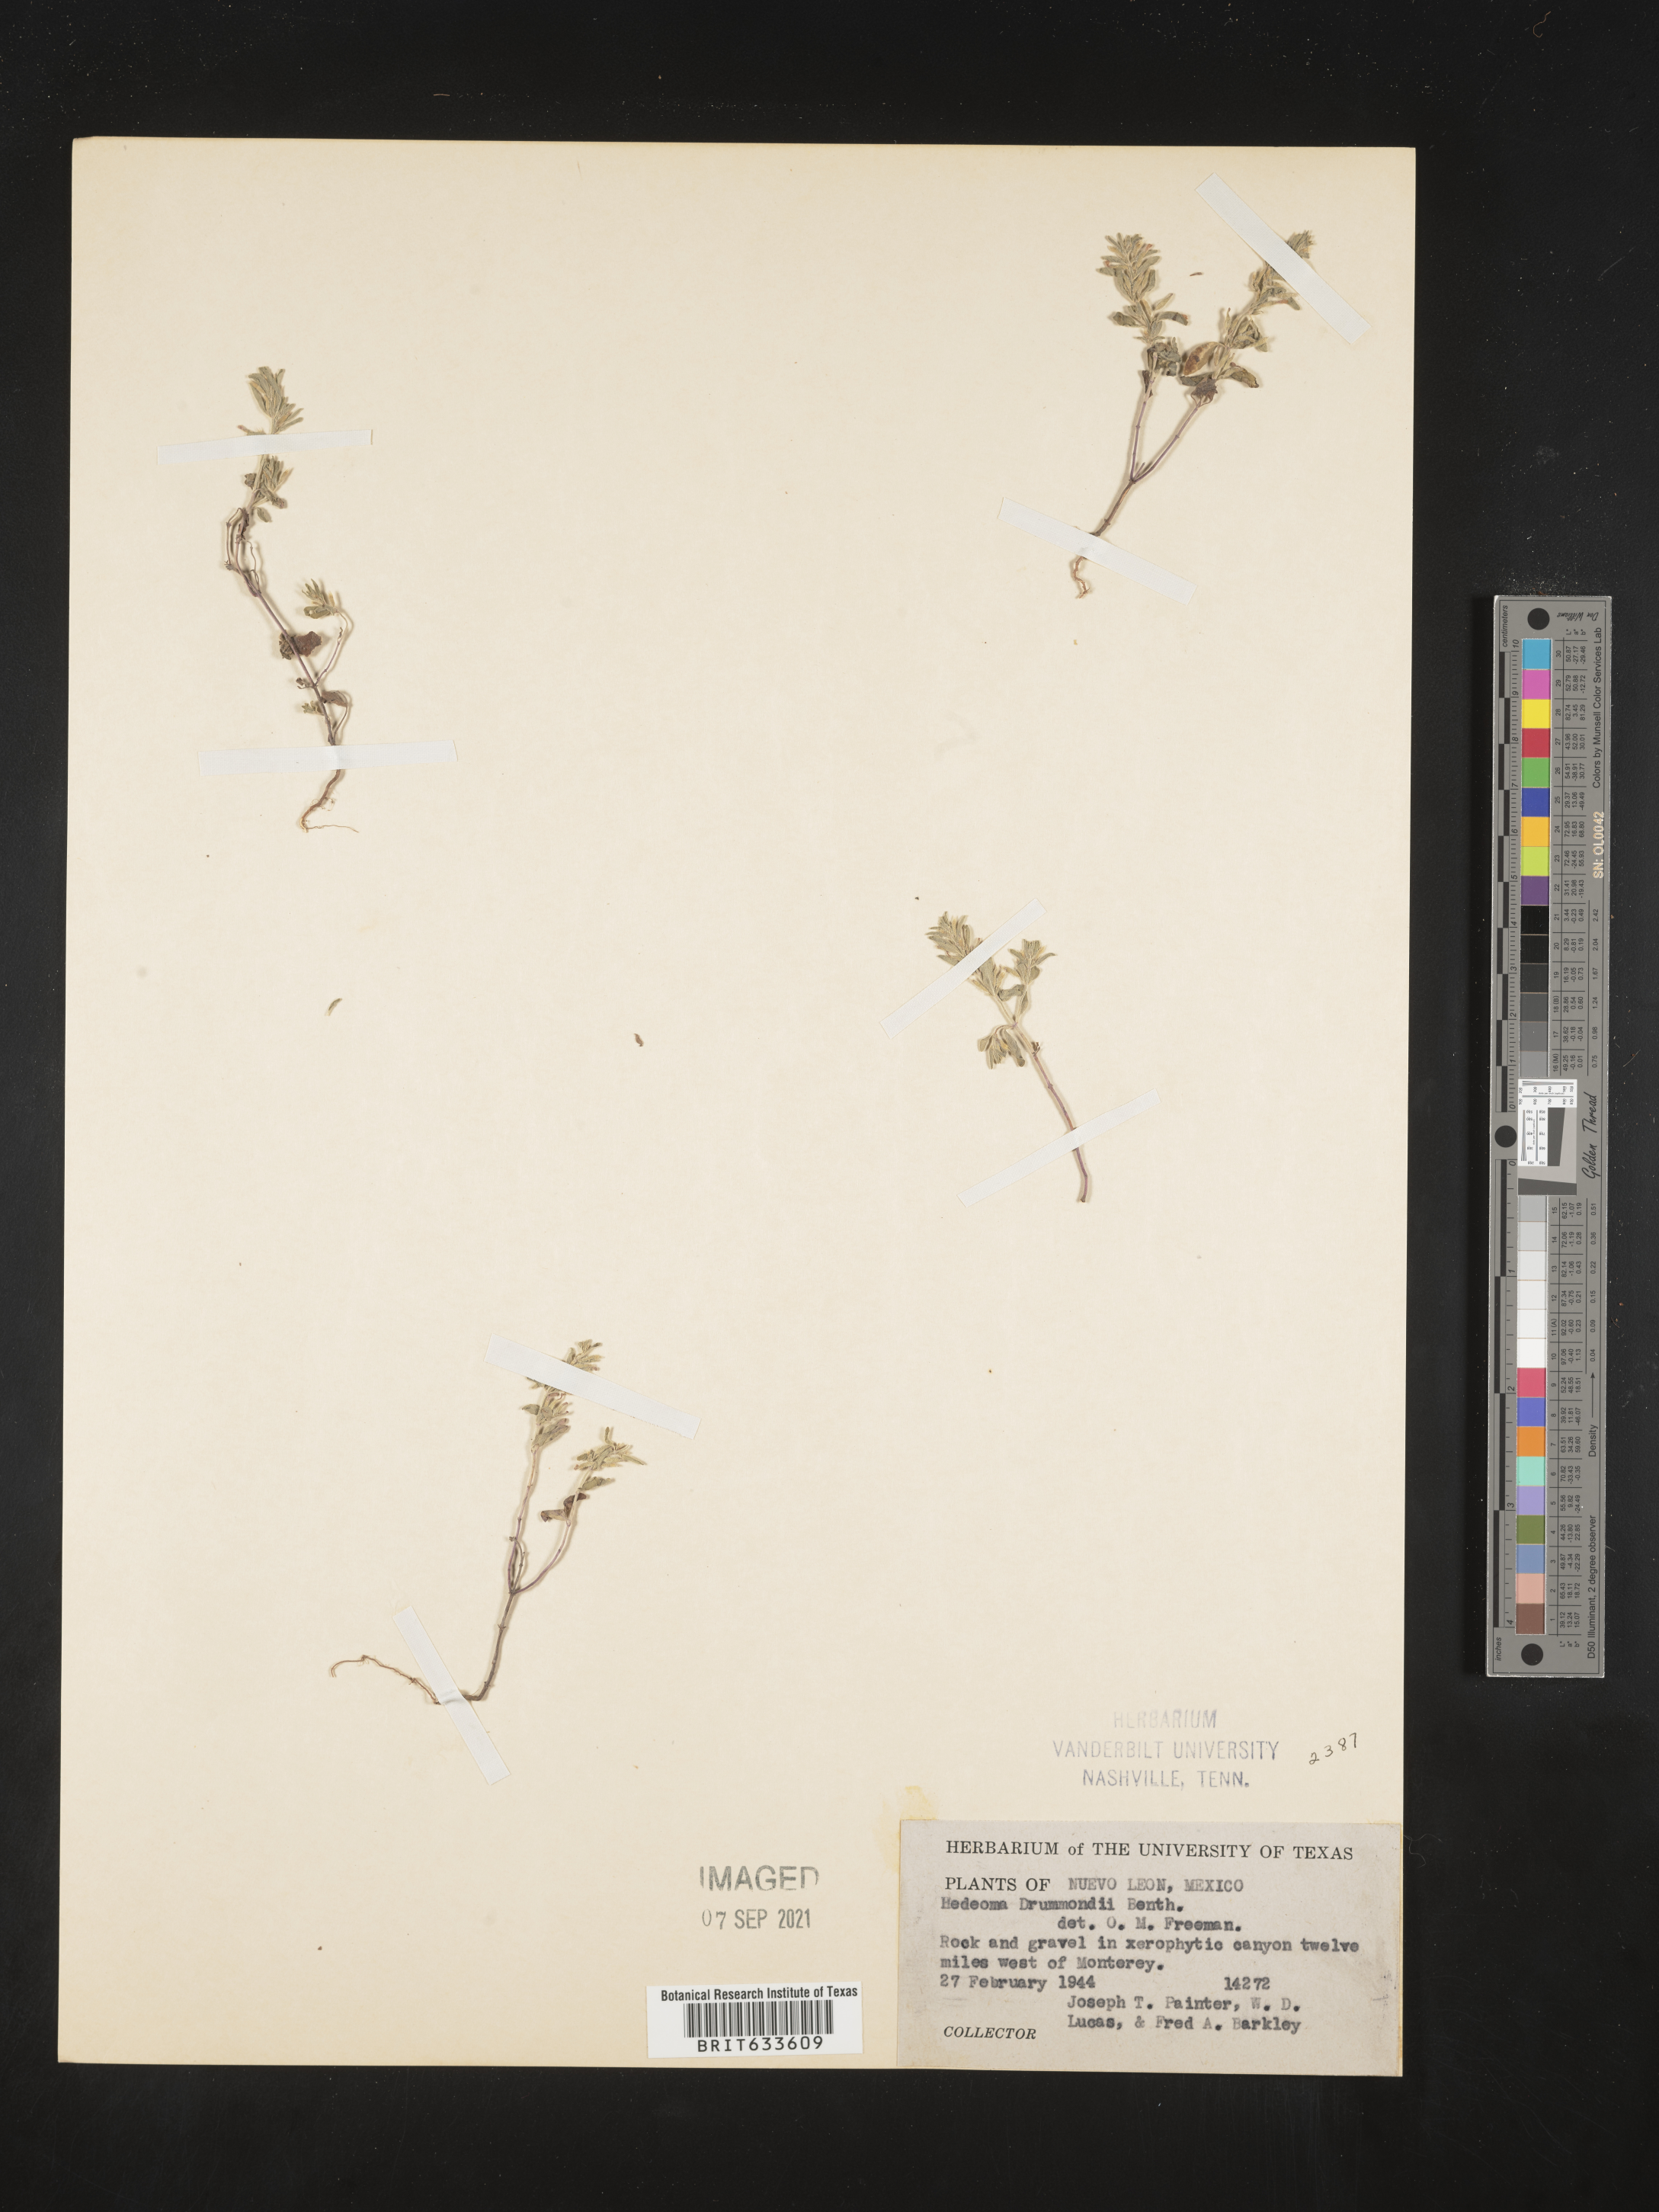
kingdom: Plantae
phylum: Tracheophyta
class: Magnoliopsida
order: Lamiales
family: Lamiaceae
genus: Hedeoma
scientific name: Hedeoma drummondii
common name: New mexico pennyroyal
